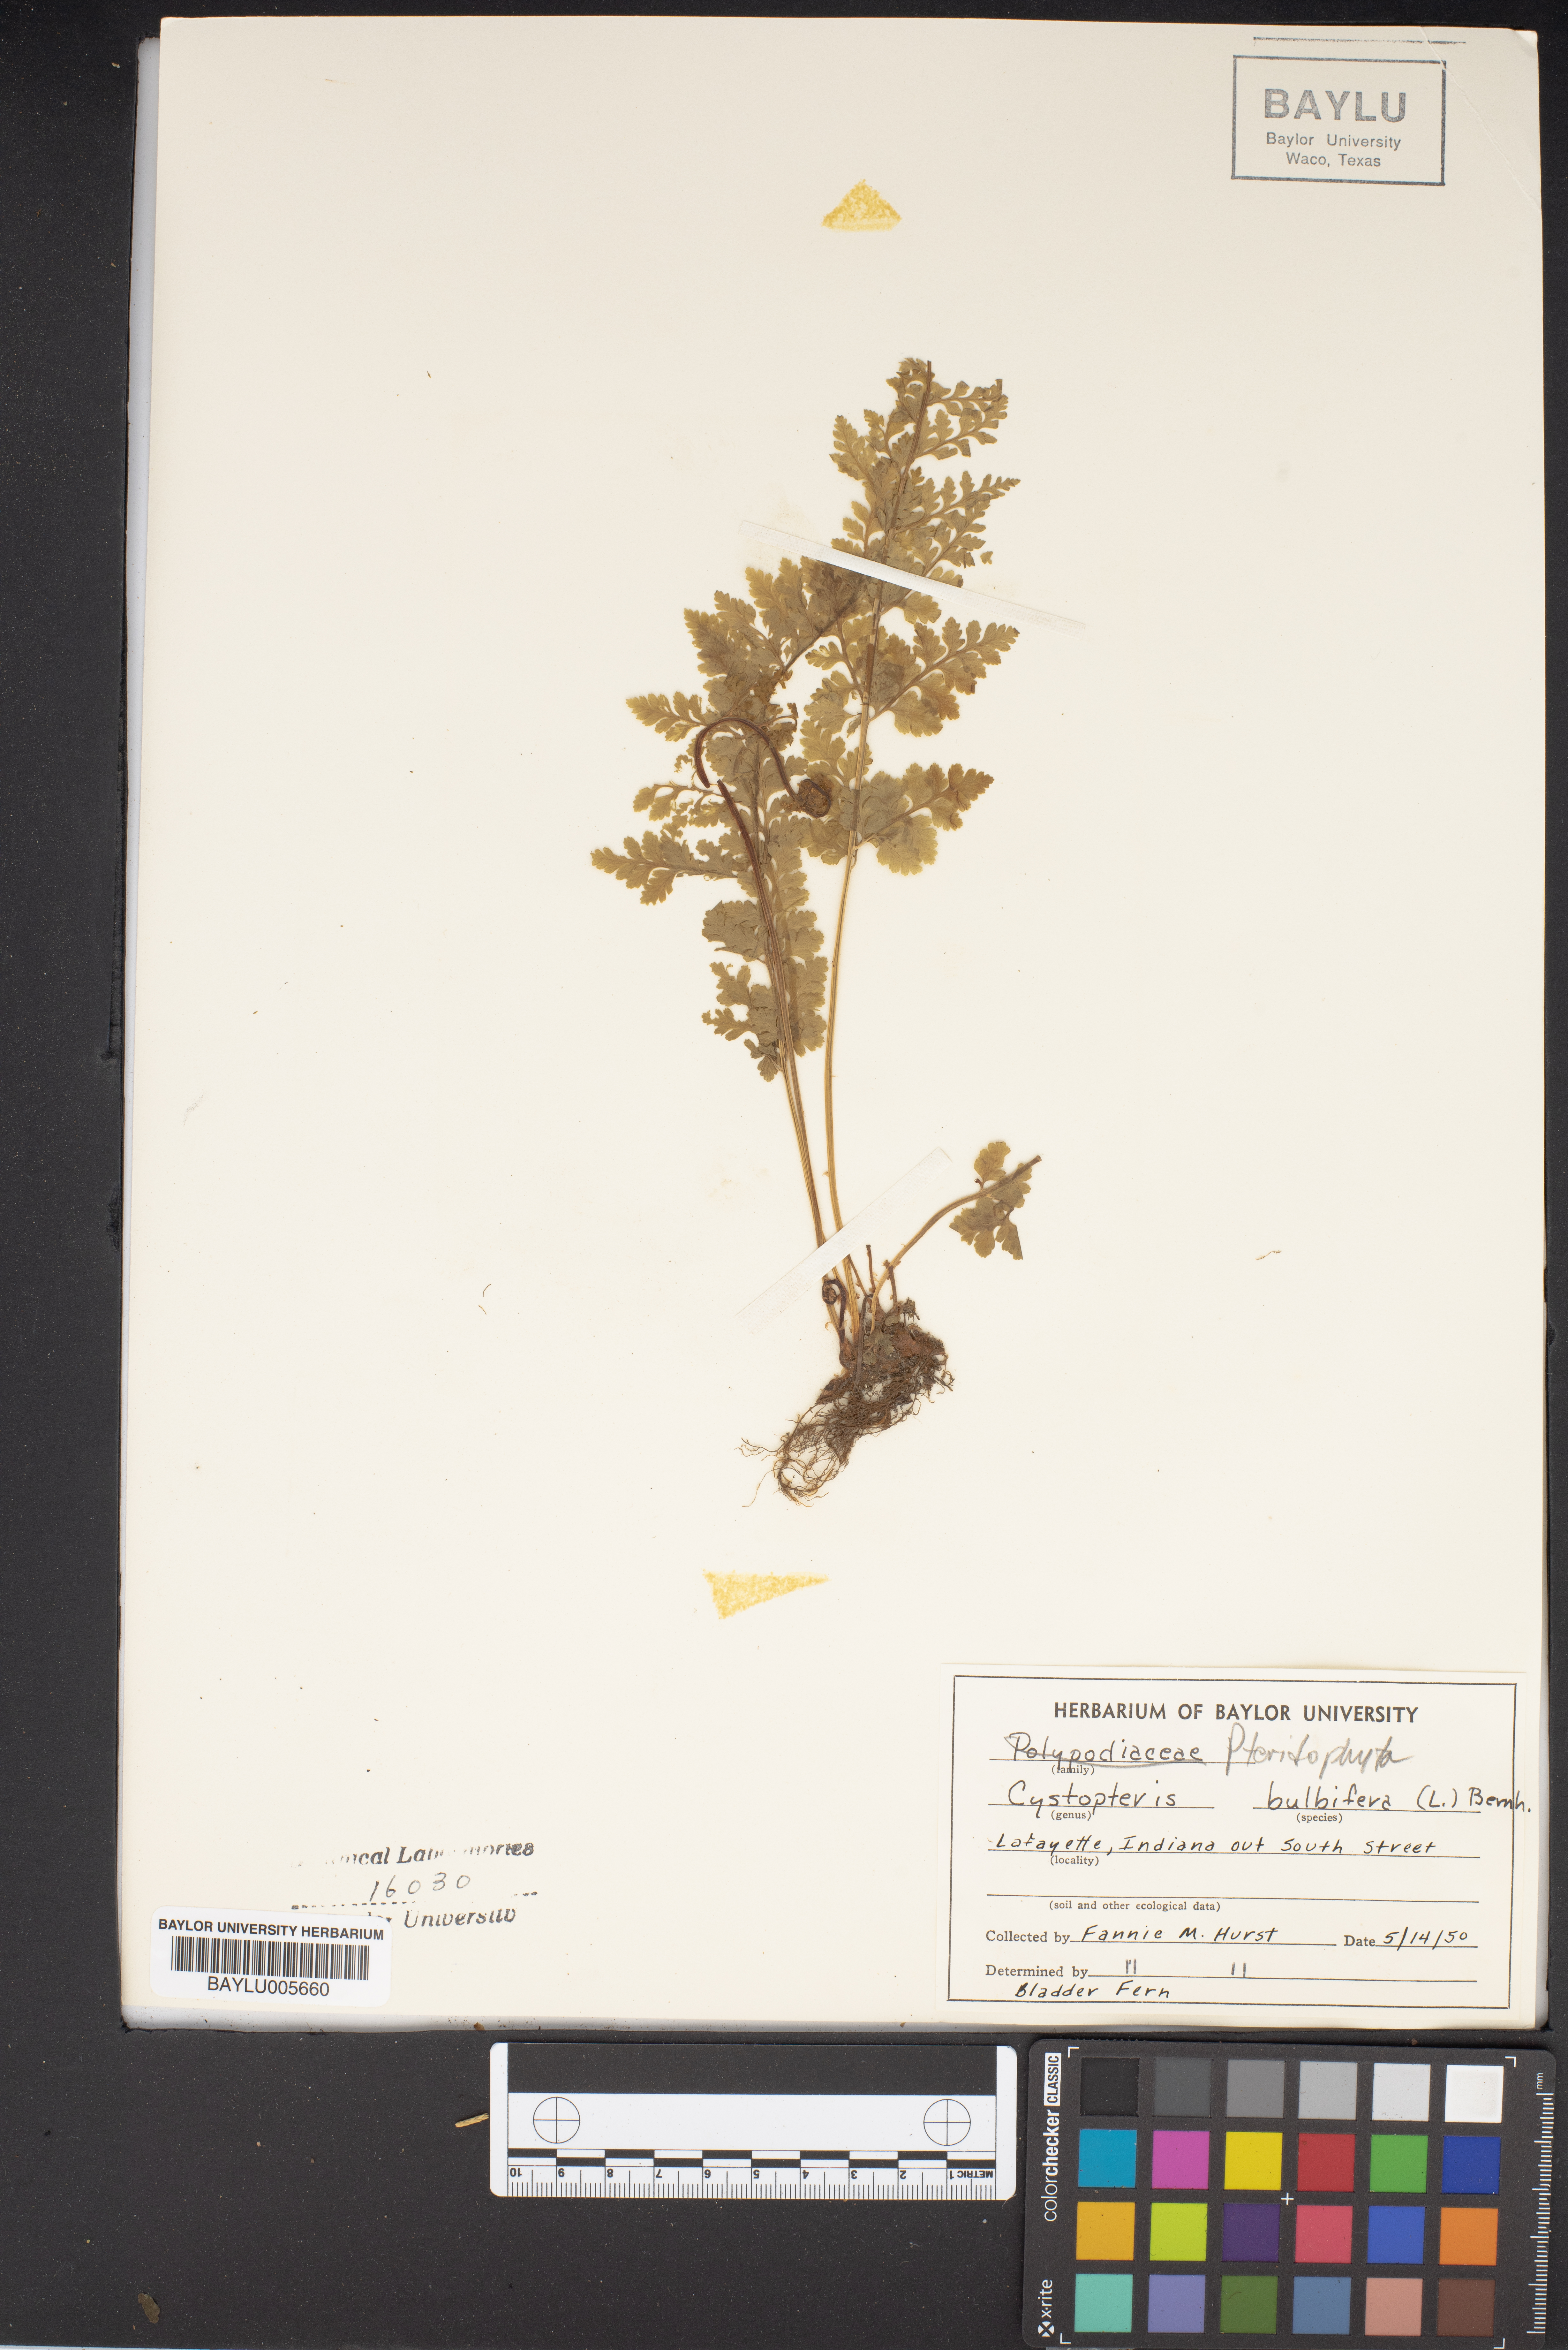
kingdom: Plantae
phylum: Tracheophyta
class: Polypodiopsida
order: Polypodiales
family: Cystopteridaceae
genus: Cystopteris
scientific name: Cystopteris bulbifera
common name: Bulblet bladder fern
